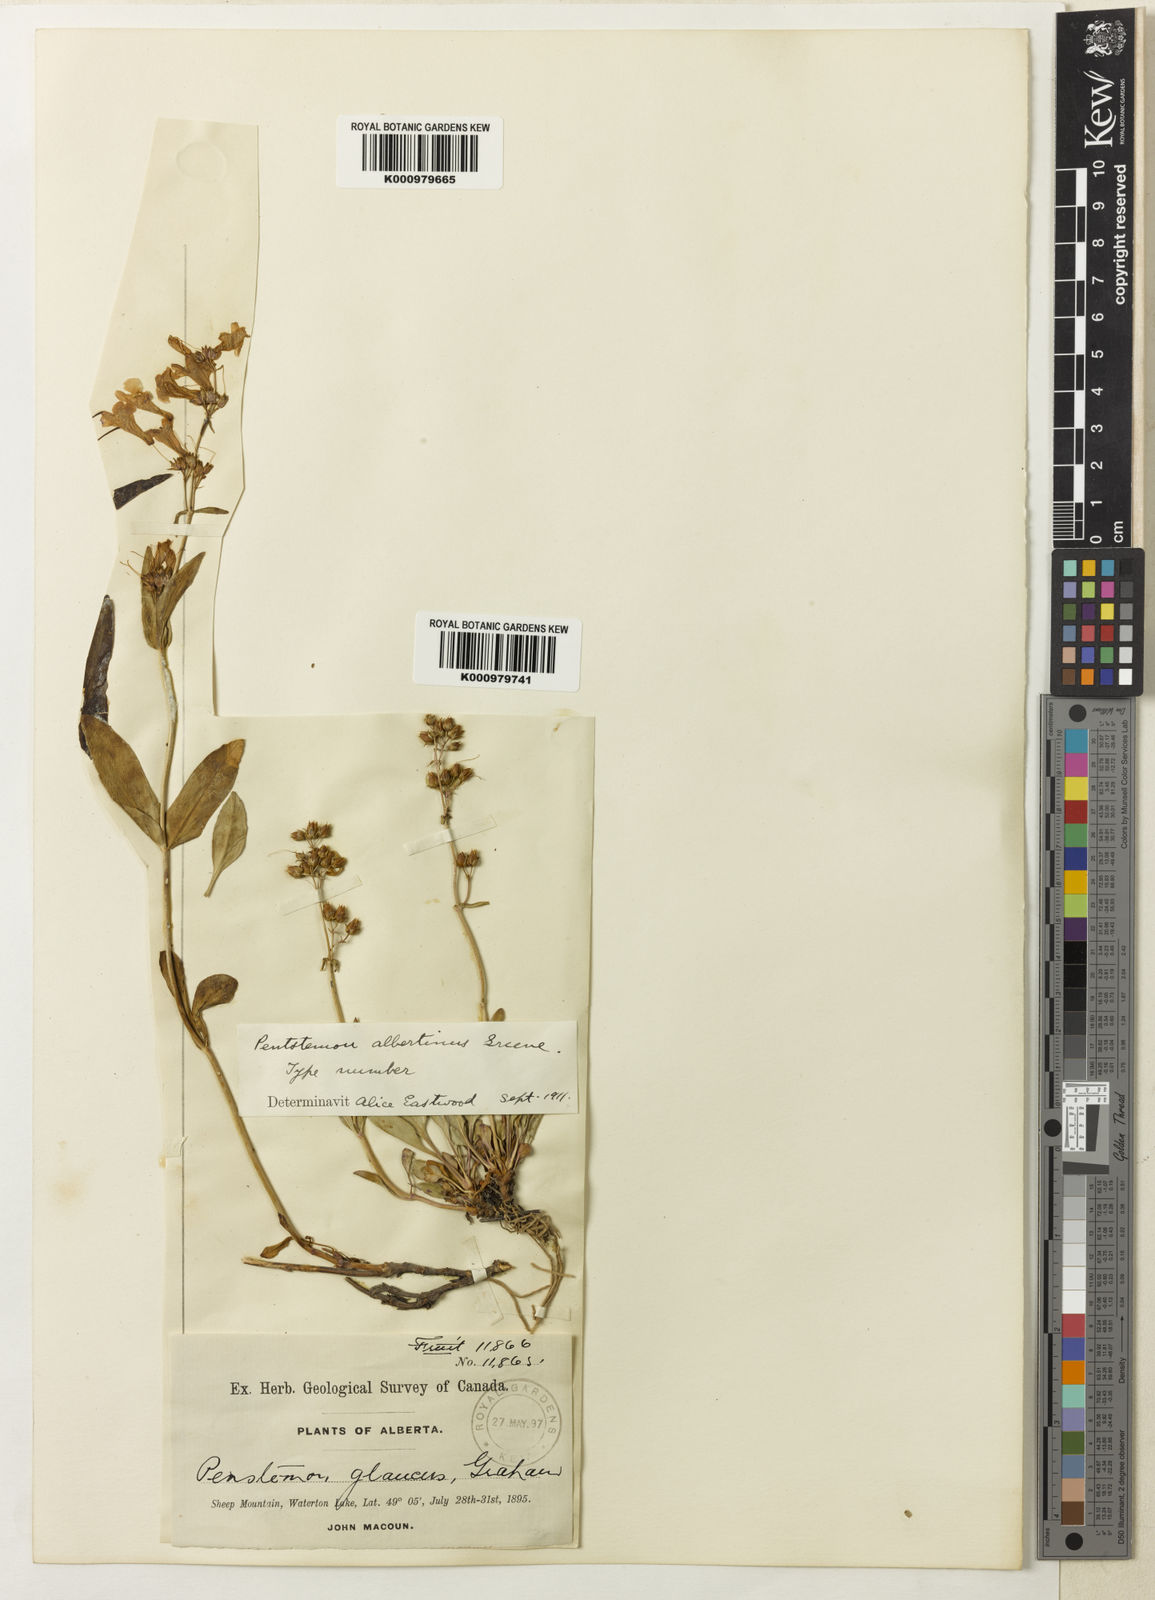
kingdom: Plantae
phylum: Tracheophyta
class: Magnoliopsida
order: Lamiales
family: Plantaginaceae
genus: Penstemon
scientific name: Penstemon humilis
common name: Low penstemon
